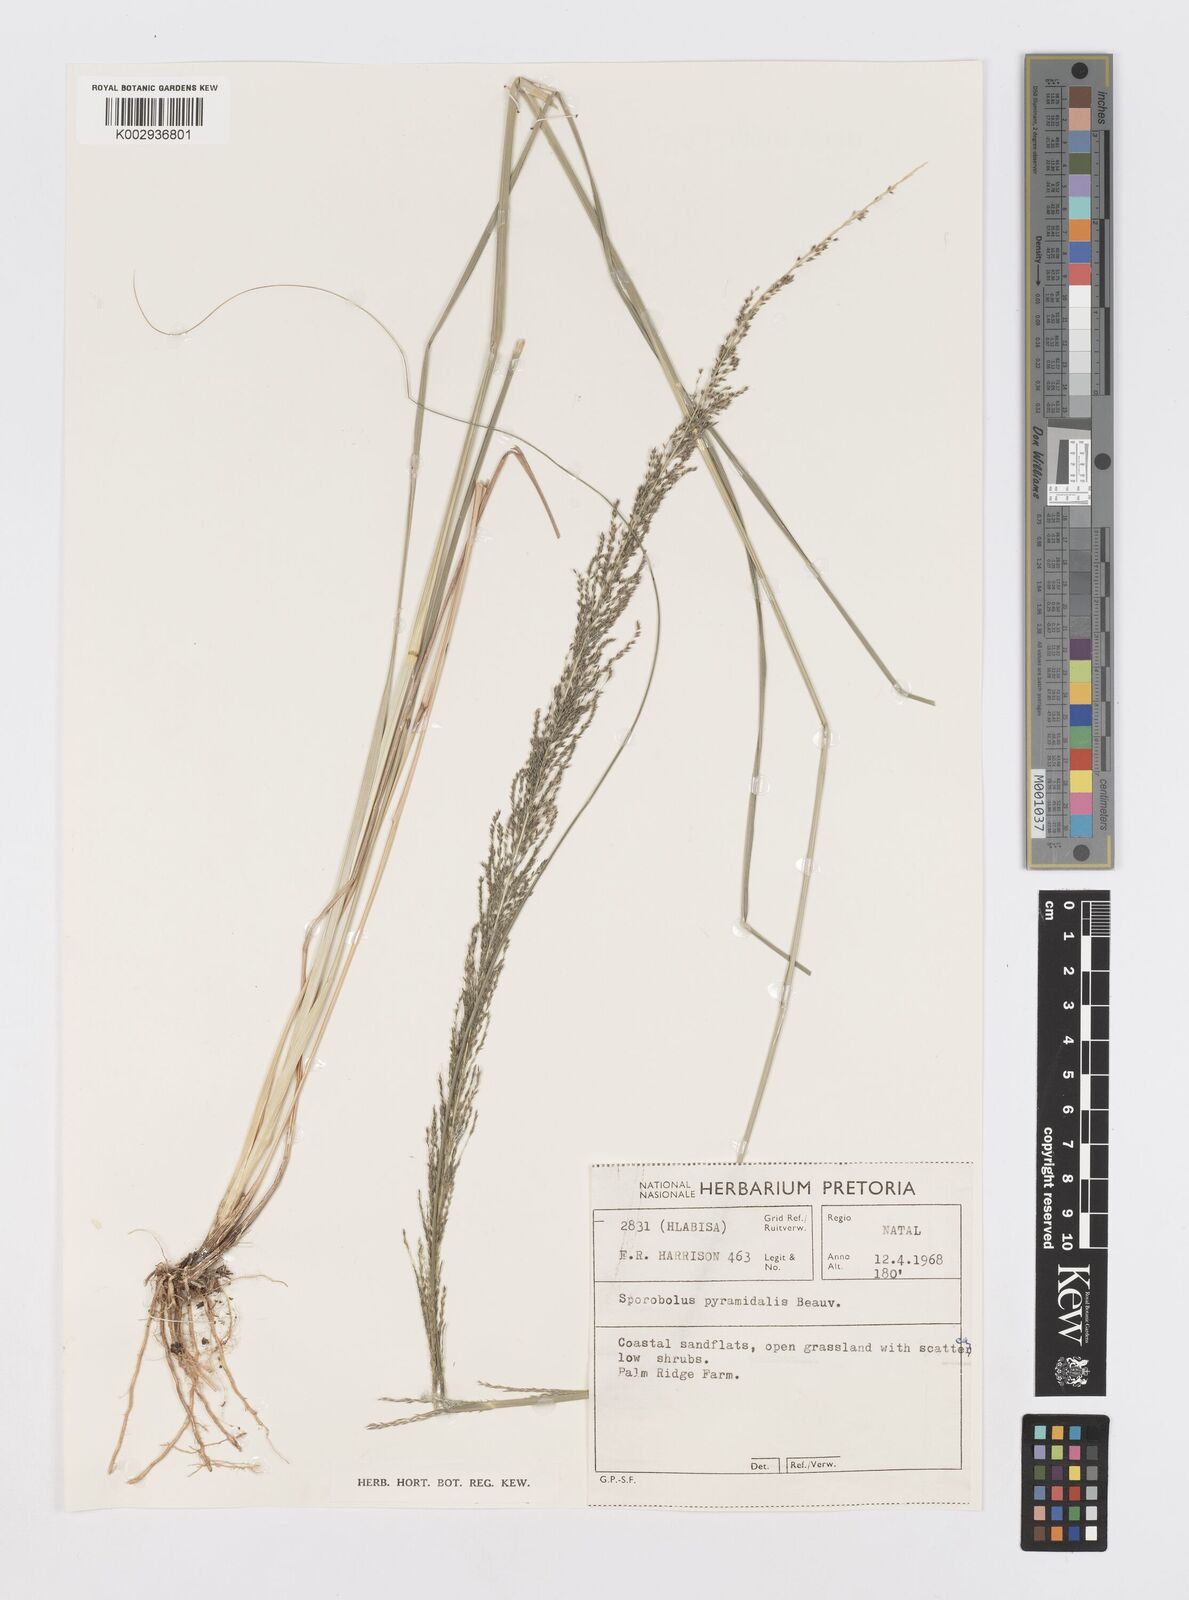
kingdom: Plantae
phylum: Tracheophyta
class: Liliopsida
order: Poales
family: Poaceae
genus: Sporobolus
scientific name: Sporobolus pyramidalis
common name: West indian dropseed
